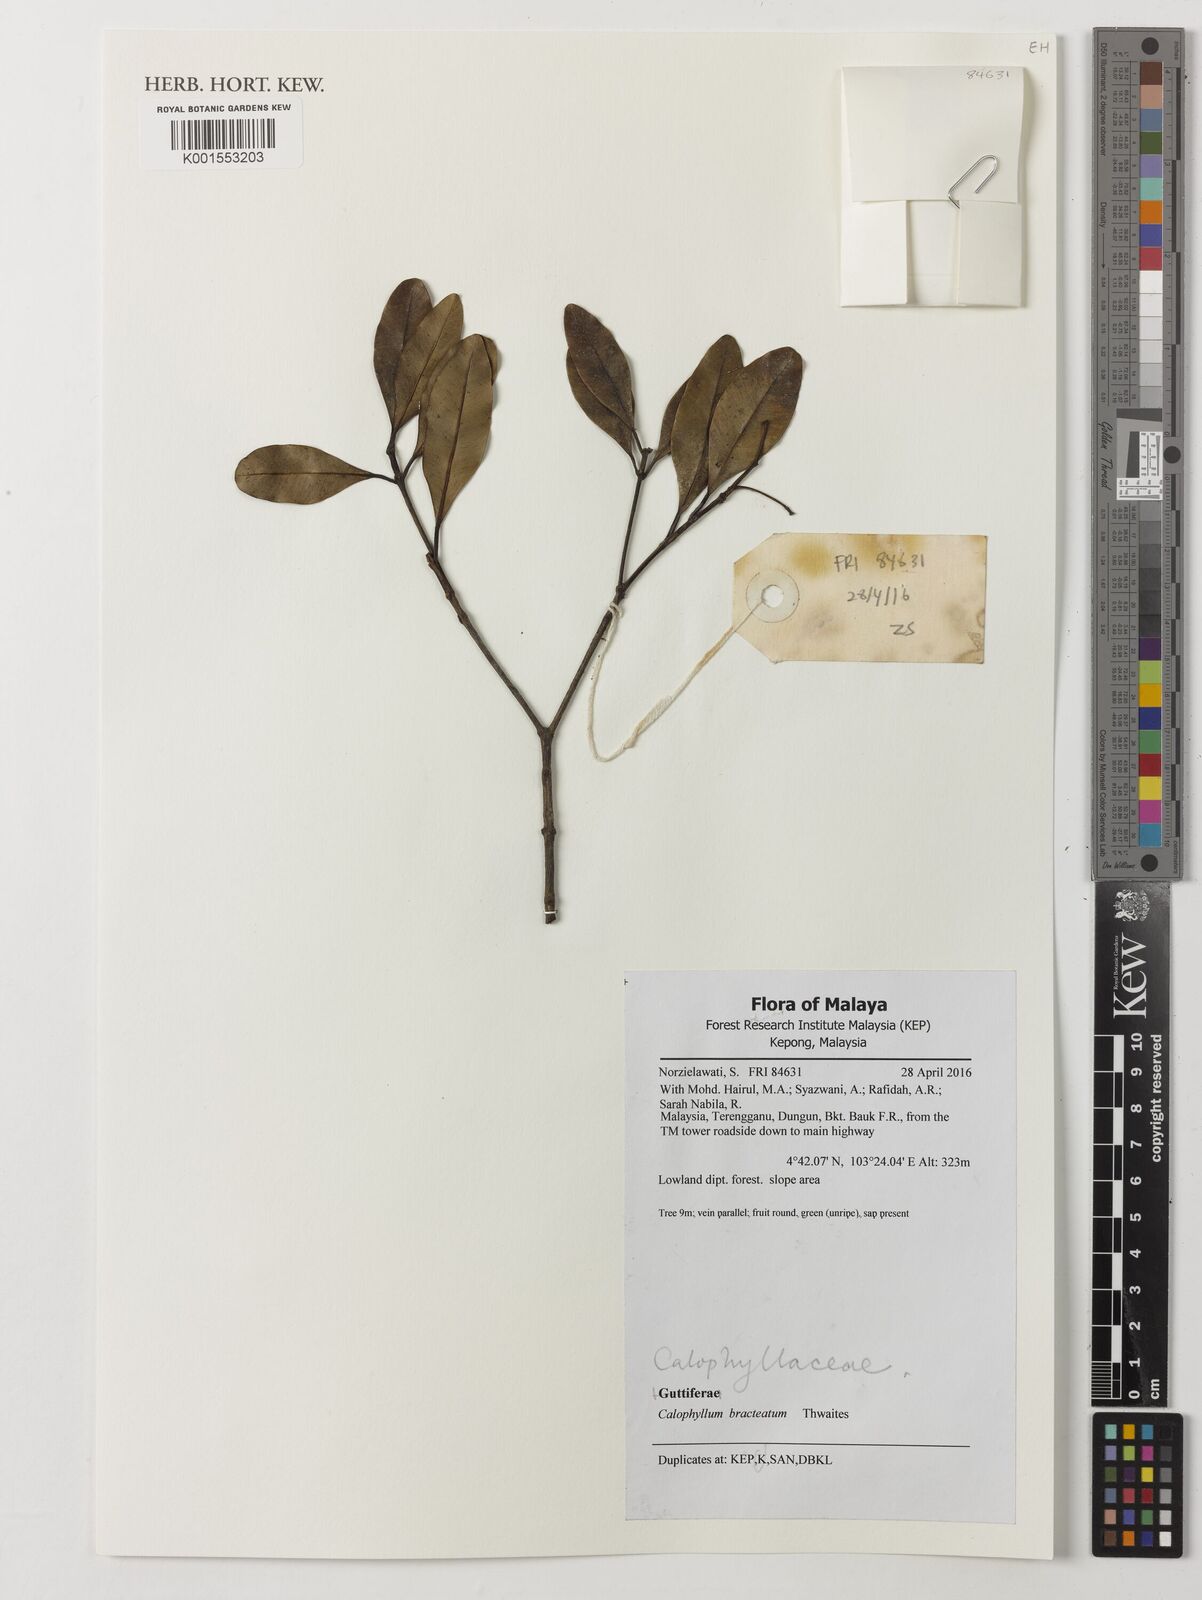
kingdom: Plantae
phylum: Tracheophyta
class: Magnoliopsida
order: Malpighiales
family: Calophyllaceae
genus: Calophyllum
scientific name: Calophyllum bracteatum
